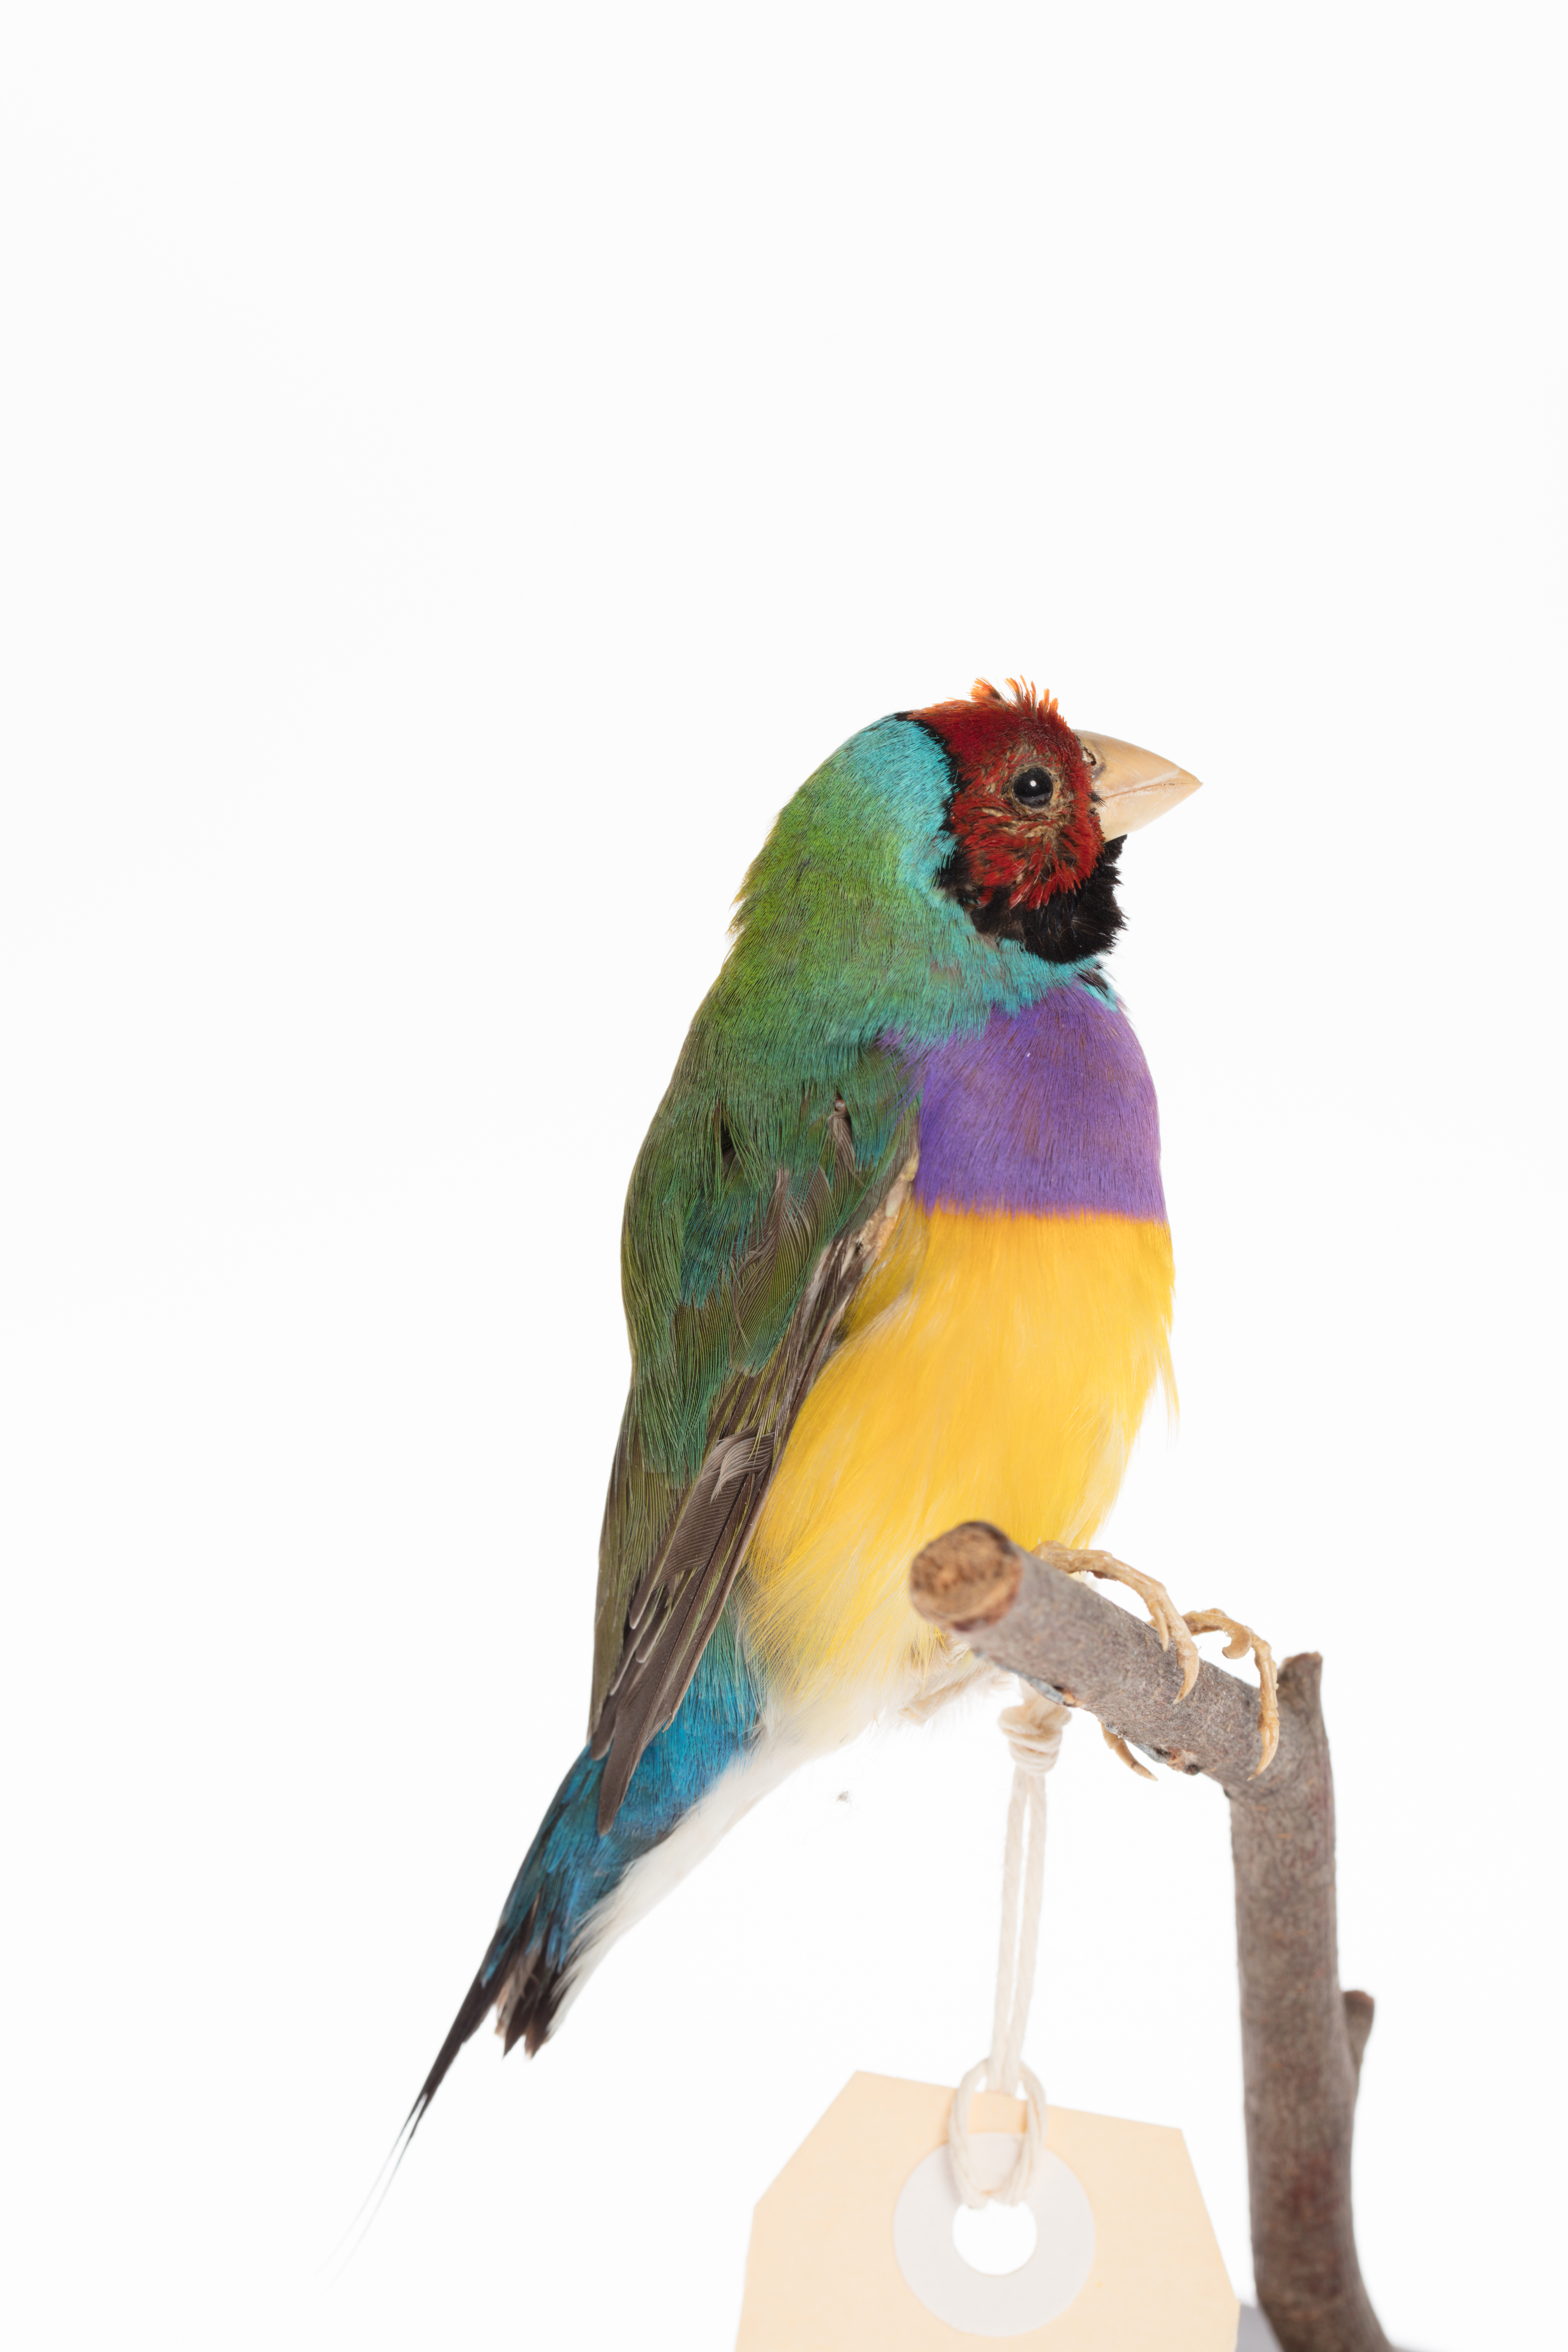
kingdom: Animalia
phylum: Chordata
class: Aves
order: Passeriformes
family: Estrildidae
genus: Erythrura
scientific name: Erythrura gouldiae
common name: Gouldian finch
